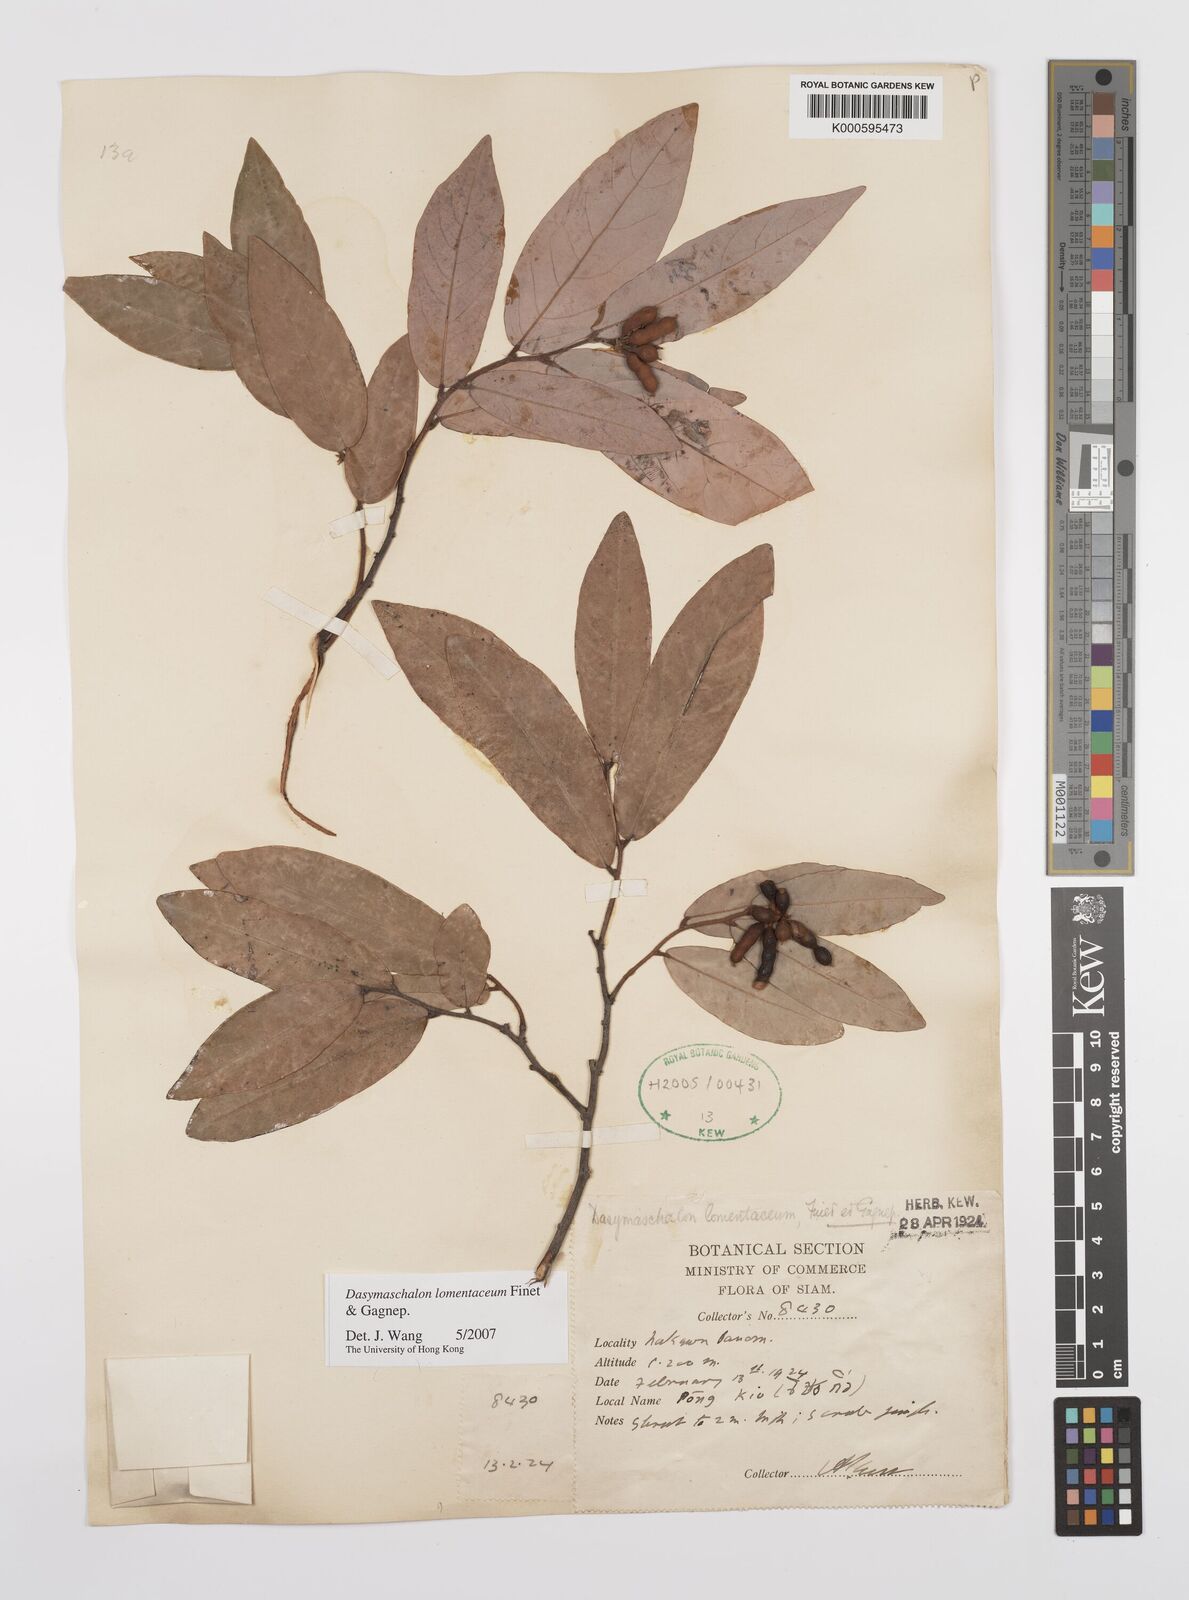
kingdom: Plantae
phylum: Tracheophyta
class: Magnoliopsida
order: Magnoliales
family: Annonaceae
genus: Dasymaschalon
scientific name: Dasymaschalon lomentaceum
